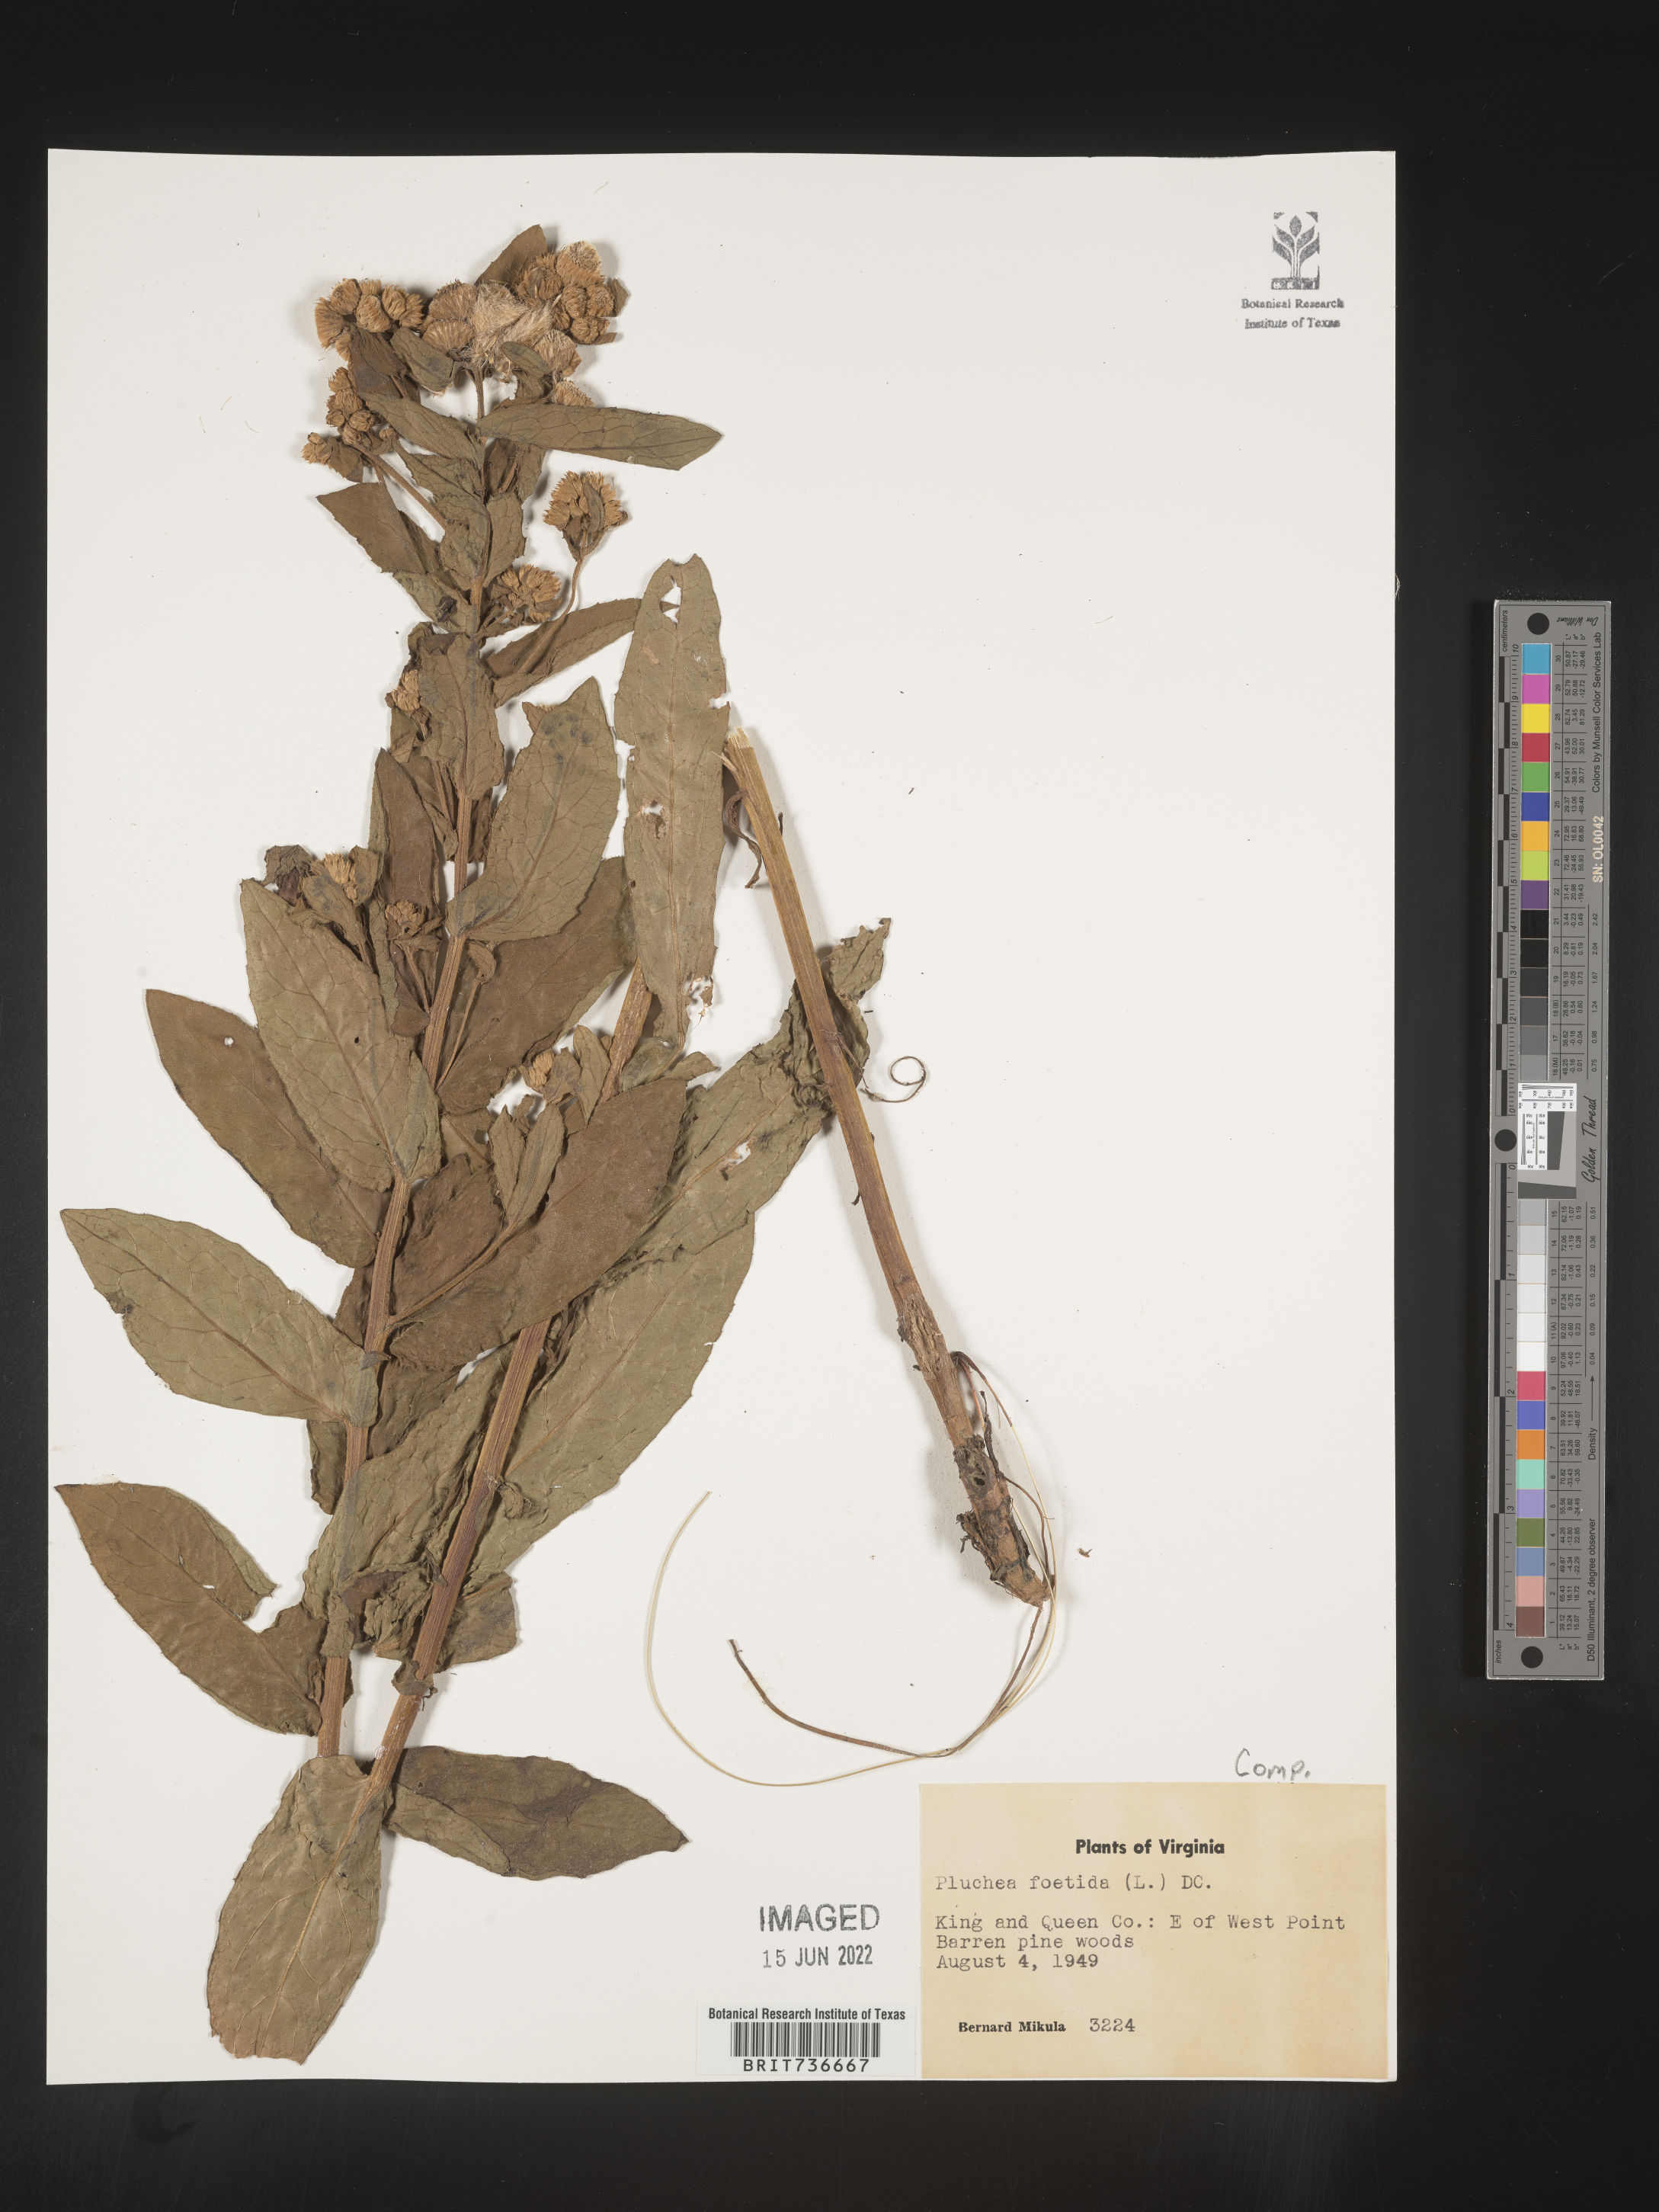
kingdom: Plantae
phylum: Tracheophyta
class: Magnoliopsida
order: Asterales
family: Asteraceae
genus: Pluchea
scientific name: Pluchea foetida
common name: Stinking camphorweed
